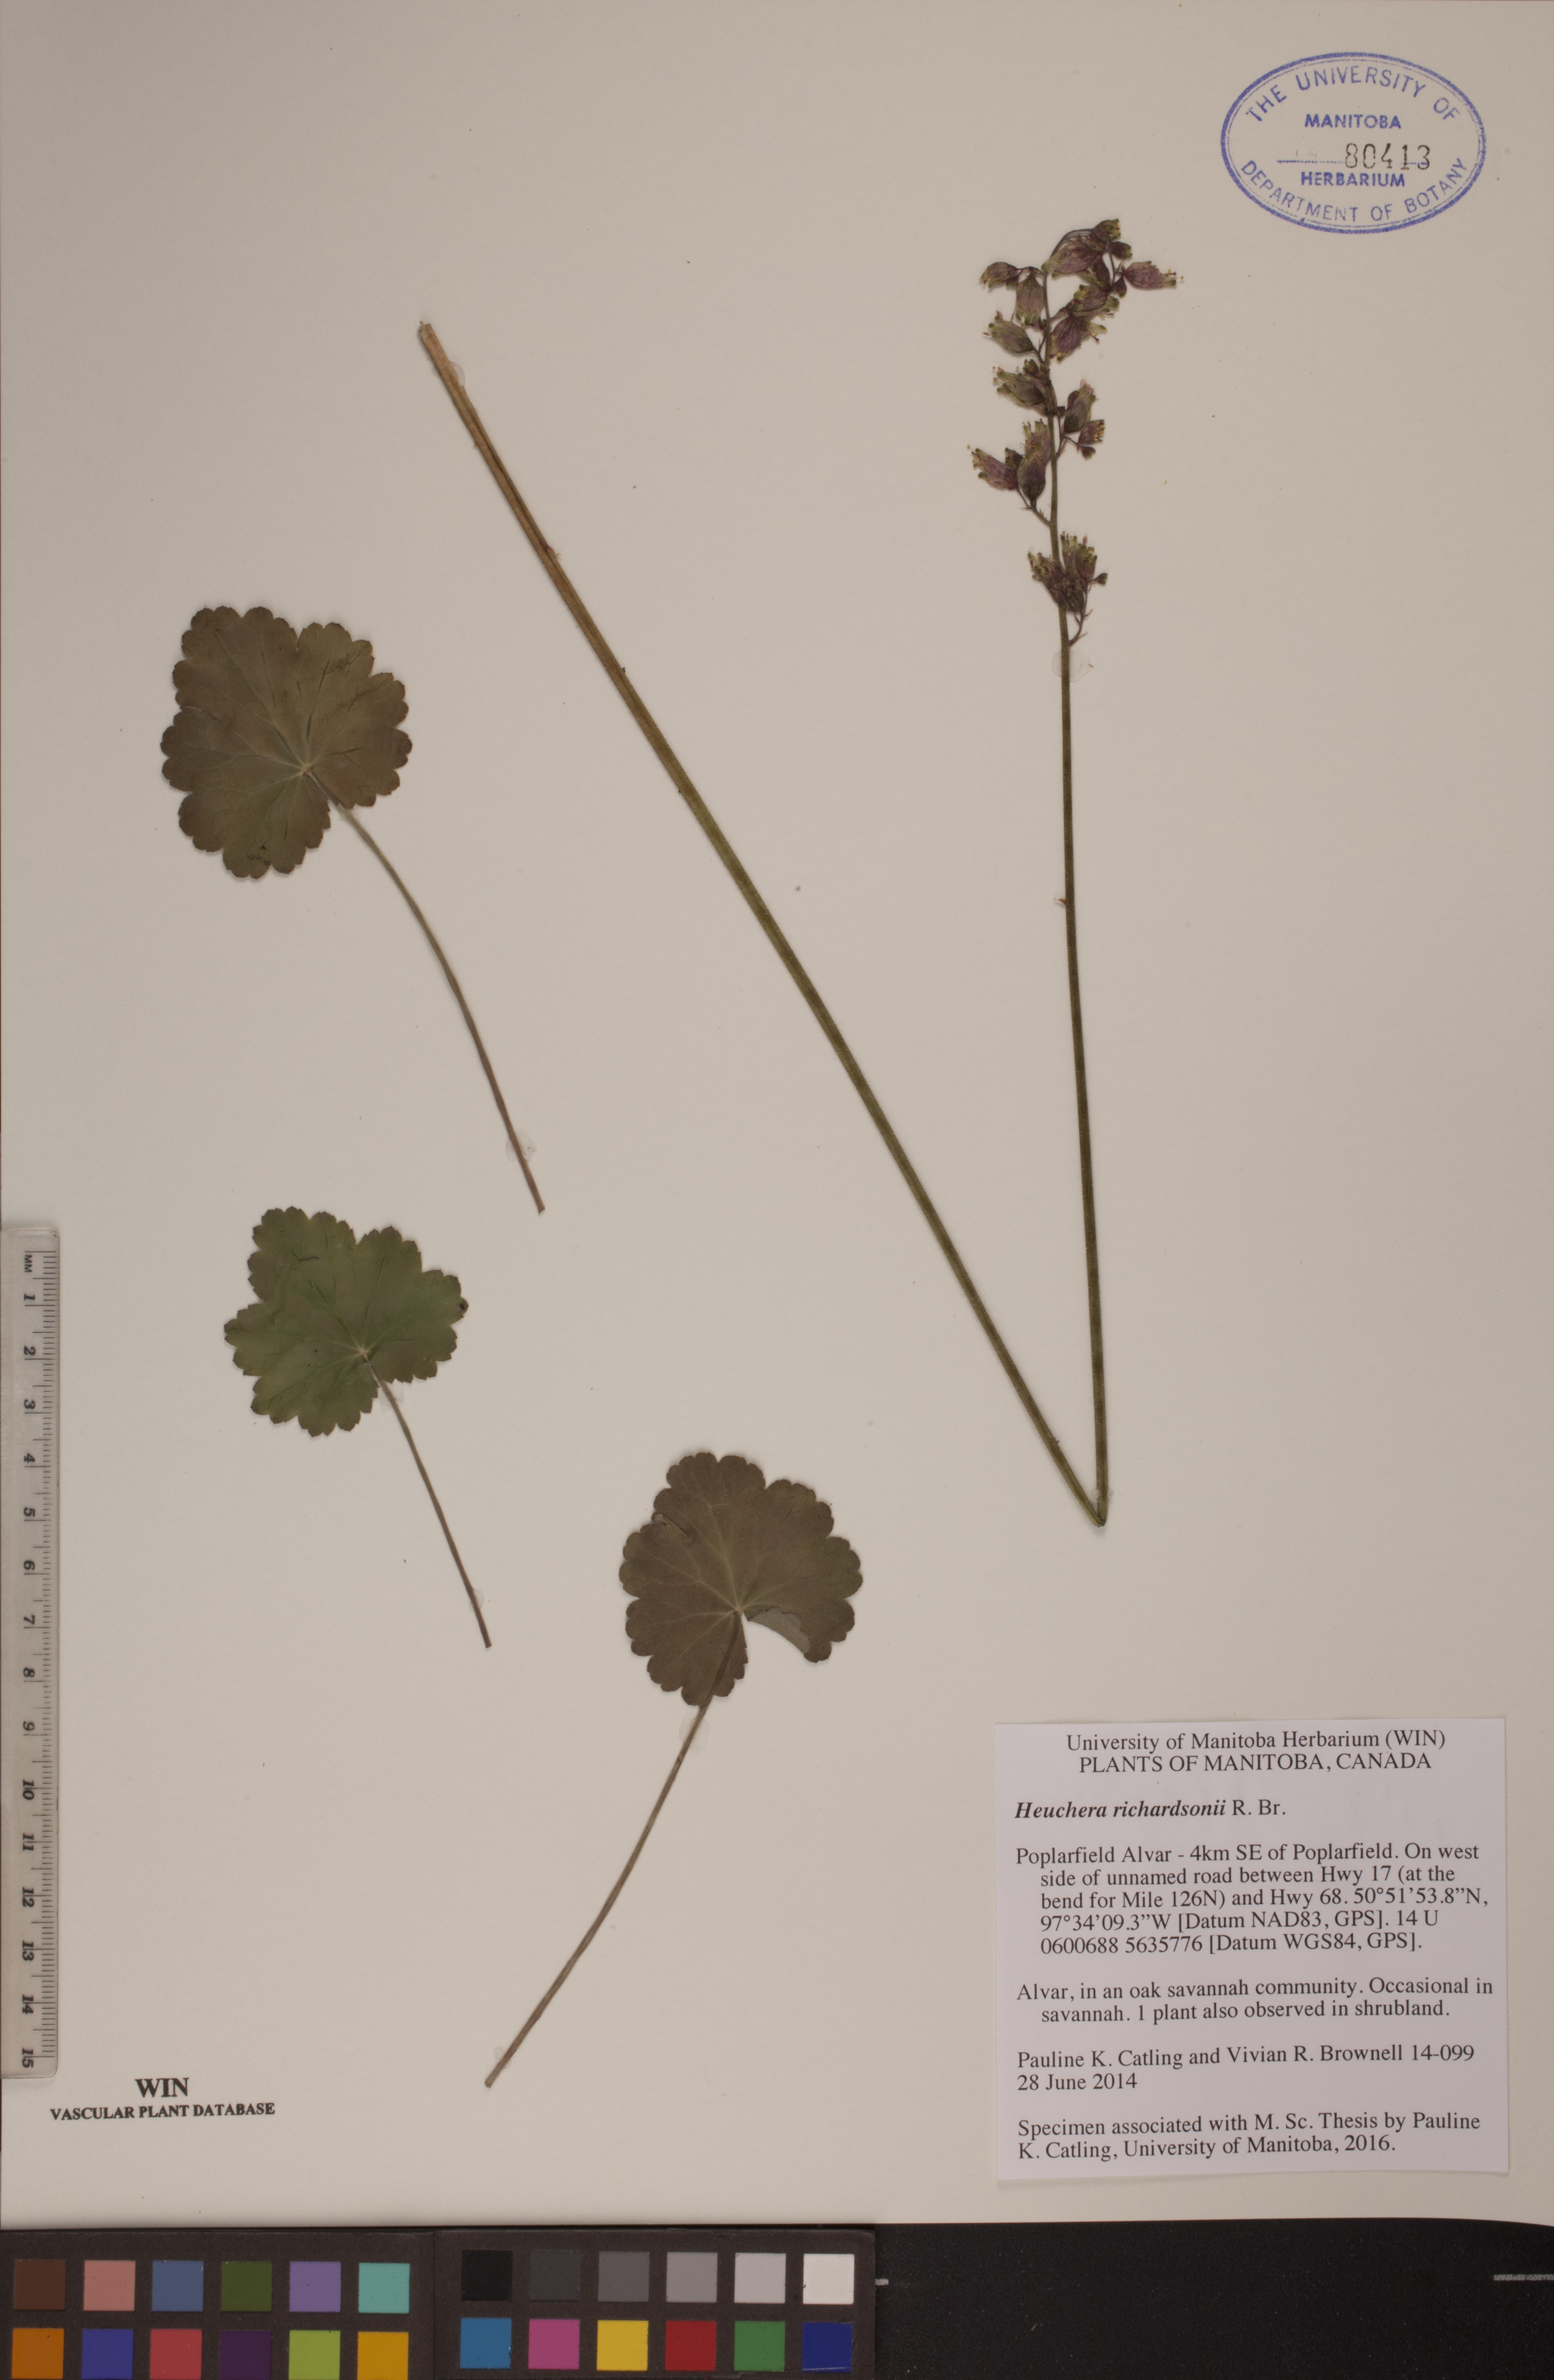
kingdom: Plantae
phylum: Tracheophyta
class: Magnoliopsida
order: Saxifragales
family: Saxifragaceae
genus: Heuchera
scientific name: Heuchera richardsonii
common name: Richardson's alumroot
